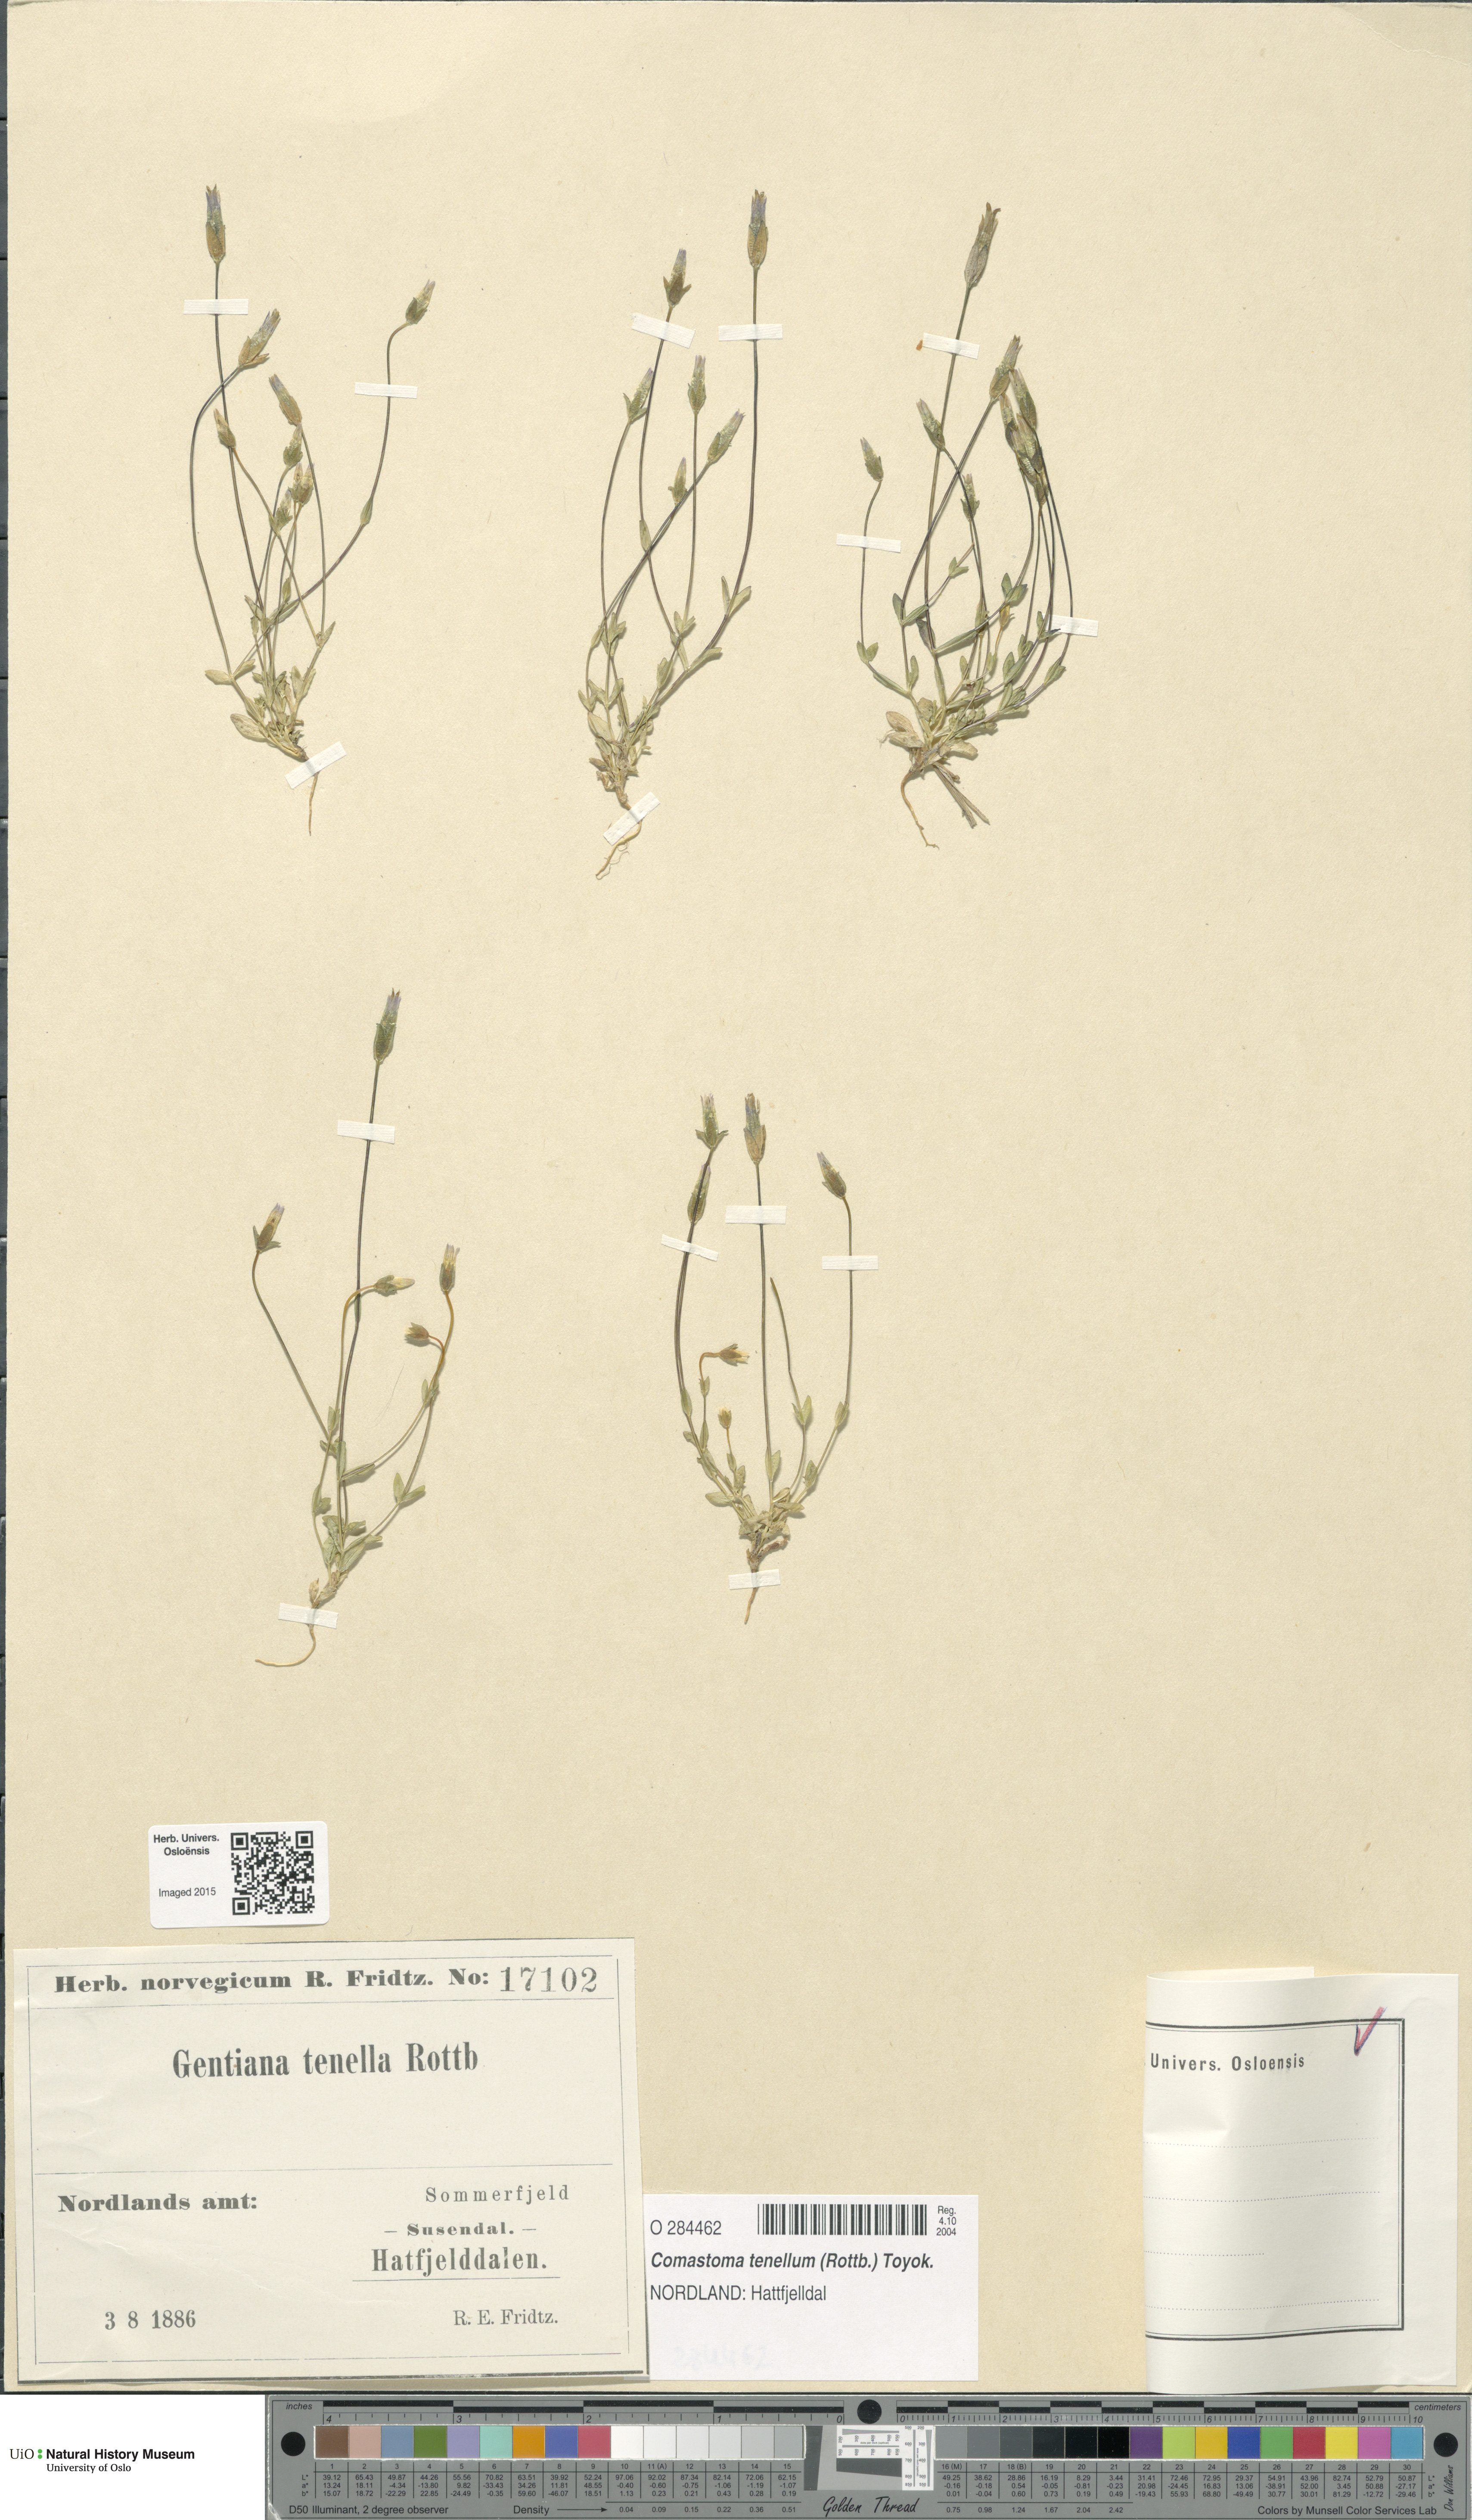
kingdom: Plantae
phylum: Tracheophyta
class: Magnoliopsida
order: Gentianales
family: Gentianaceae
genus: Comastoma
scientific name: Comastoma tenellum
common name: Dane's dwarf gentian
